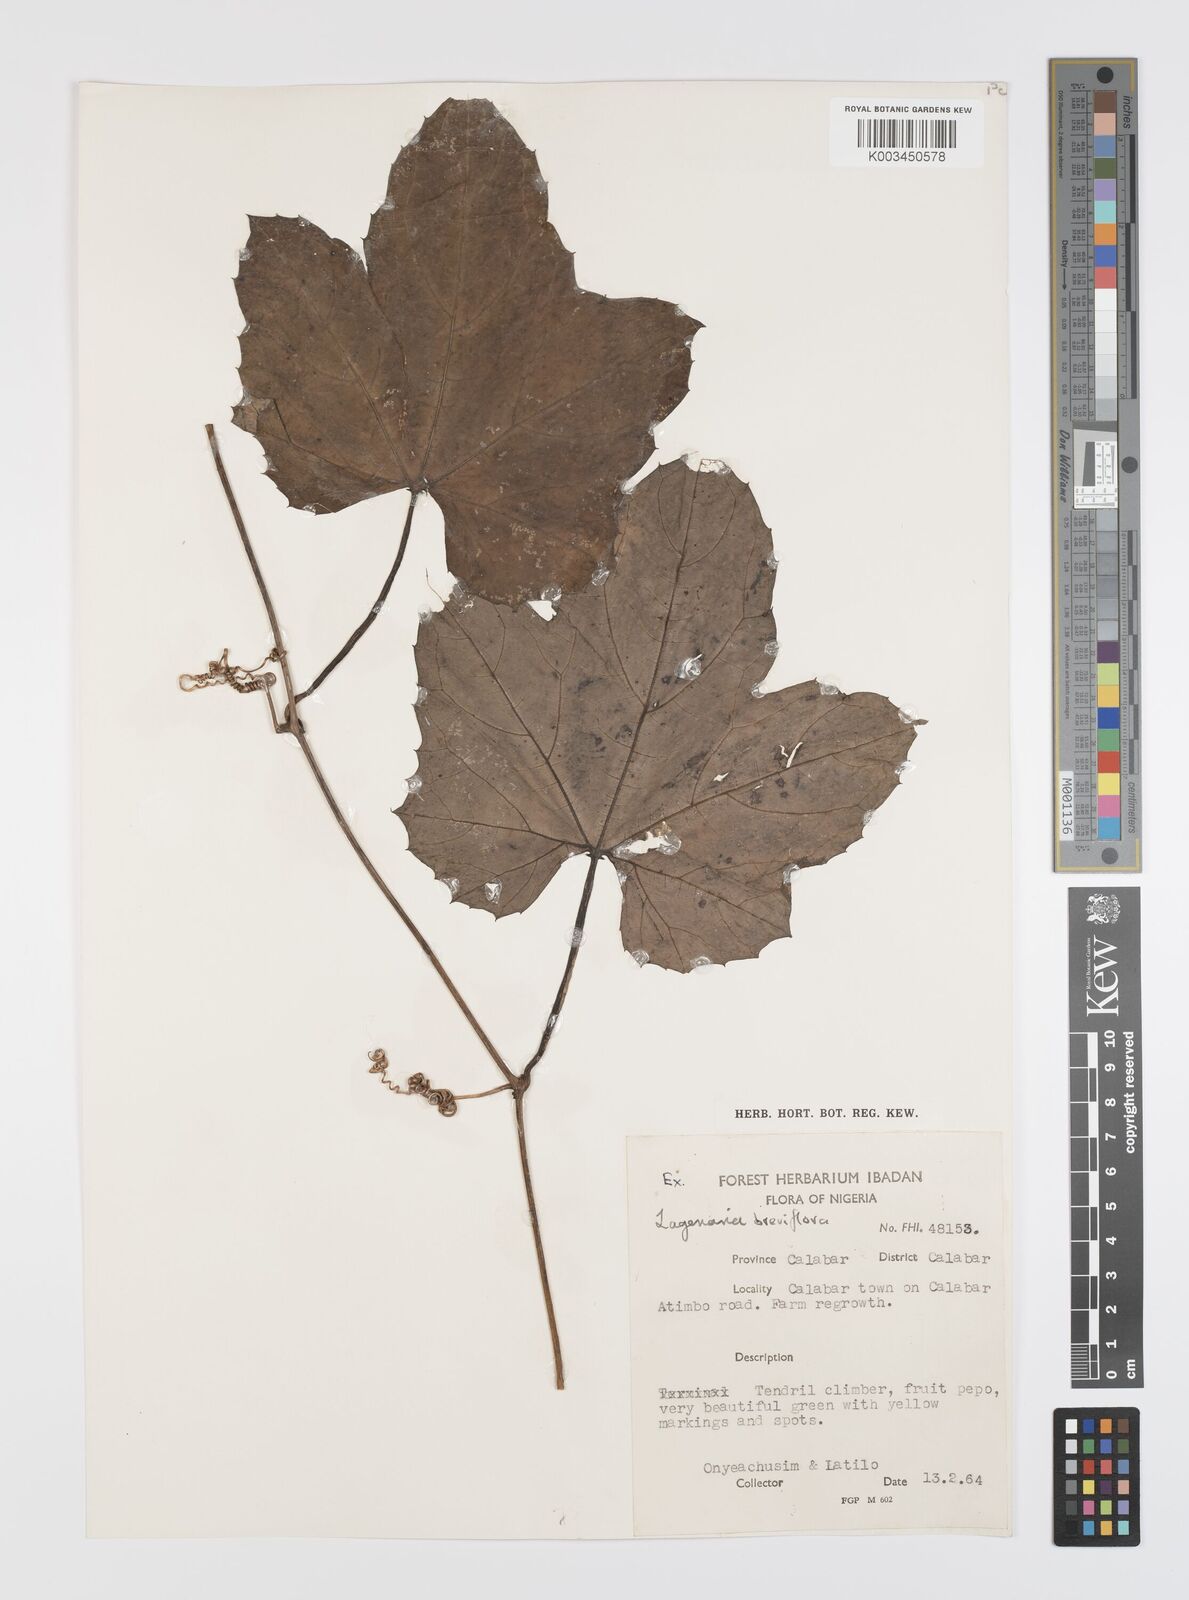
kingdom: Plantae
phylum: Tracheophyta
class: Magnoliopsida
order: Cucurbitales
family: Cucurbitaceae
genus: Lagenaria
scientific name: Lagenaria breviflora
